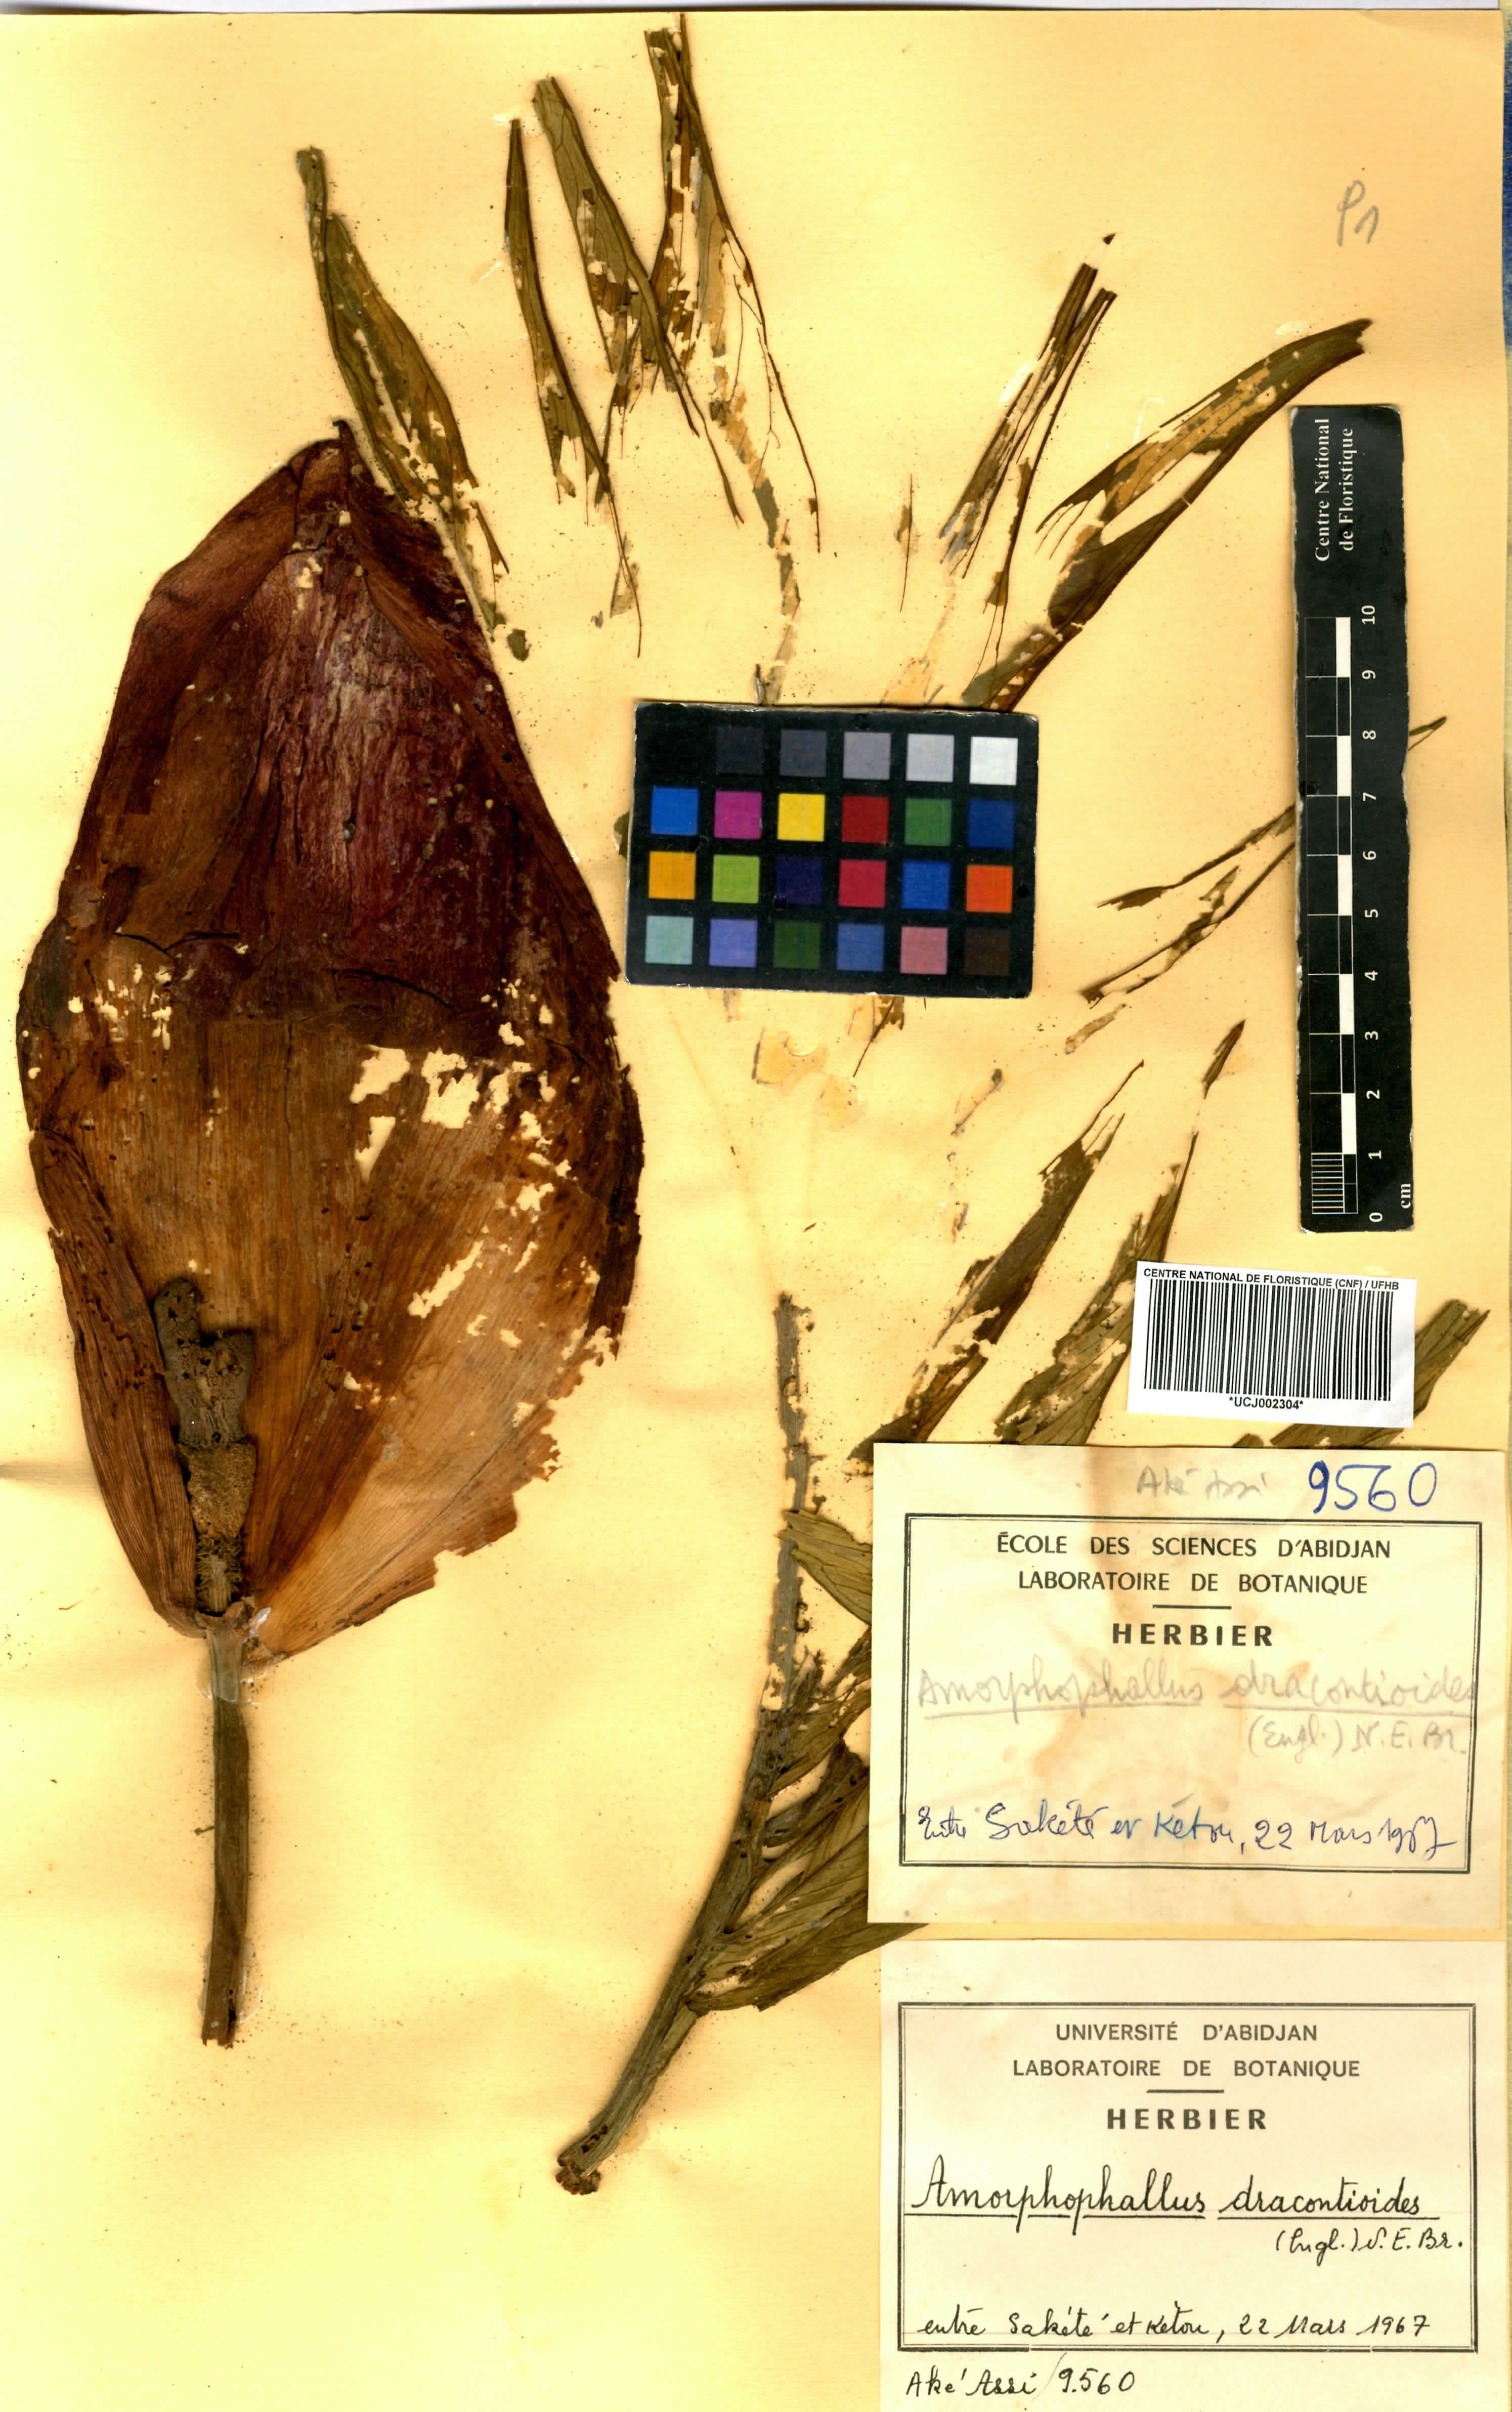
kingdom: Plantae
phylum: Tracheophyta
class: Liliopsida
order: Alismatales
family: Araceae
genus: Amorphophallus
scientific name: Amorphophallus dracontioides
